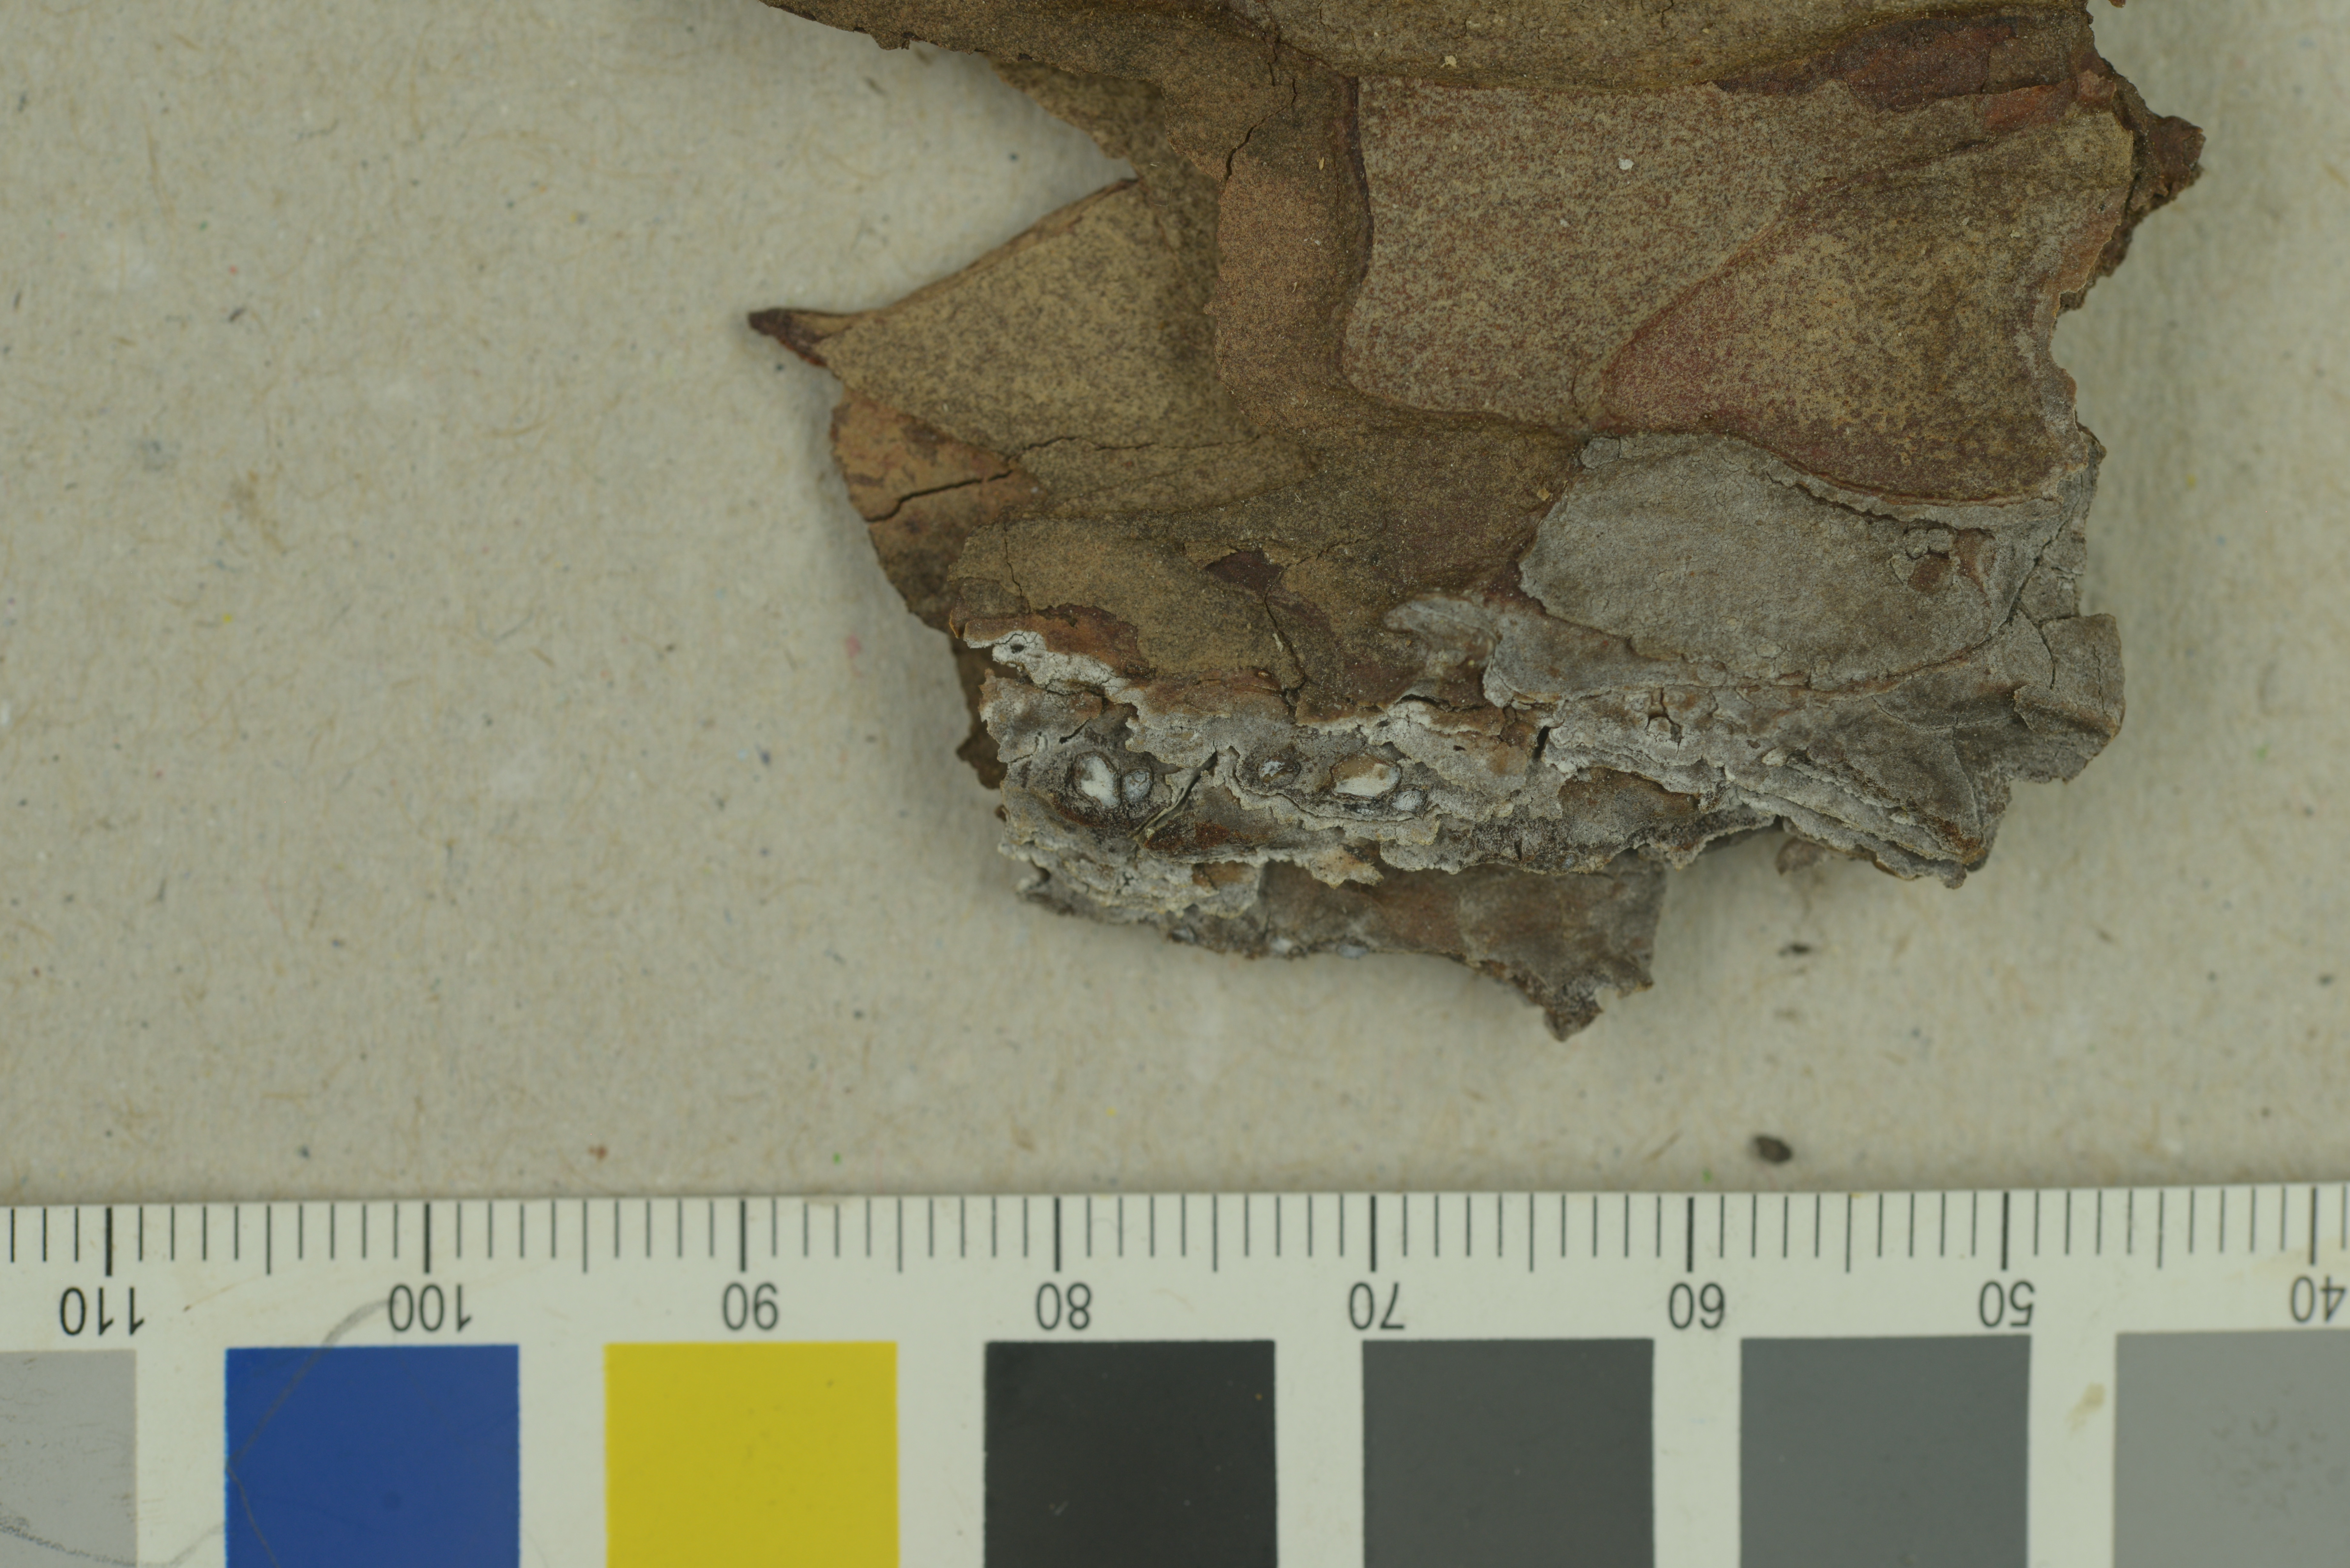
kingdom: Fungi
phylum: Ascomycota
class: Leotiomycetes
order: Chaetomellales
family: Marthamycetaceae
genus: Propolis
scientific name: Propolis leonis
